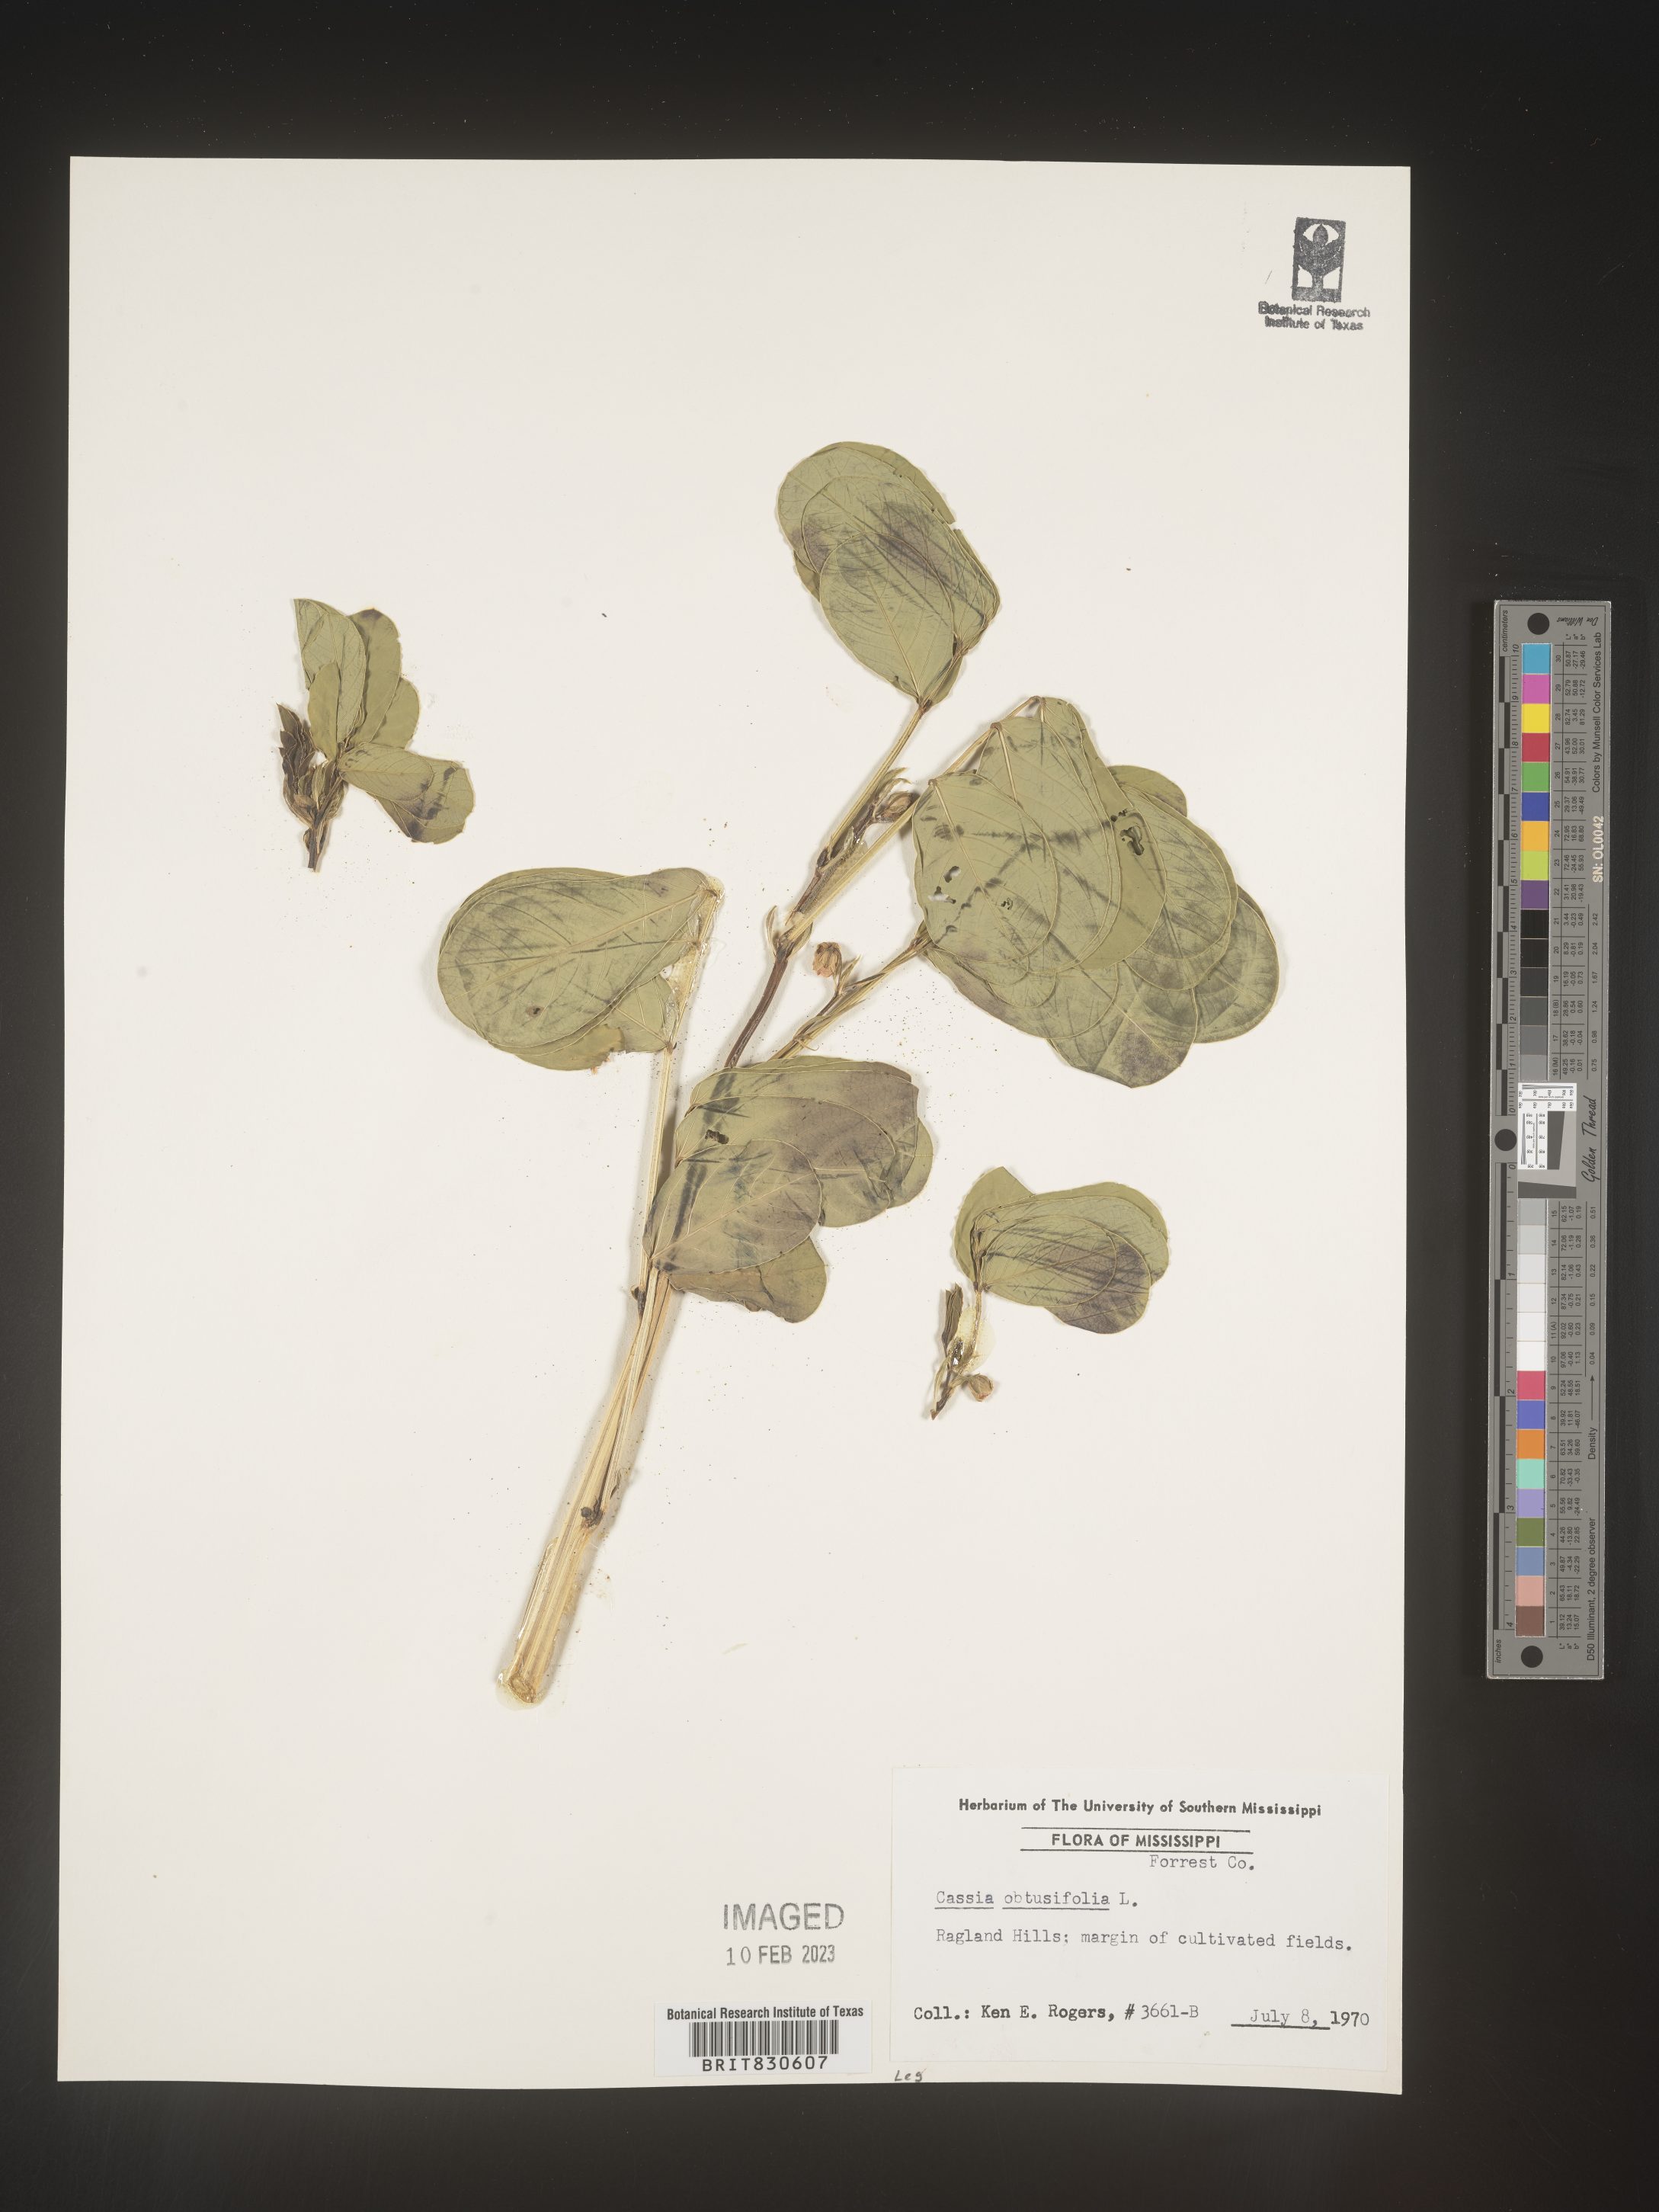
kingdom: Plantae
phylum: Tracheophyta
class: Magnoliopsida
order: Fabales
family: Fabaceae
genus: Senna
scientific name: Senna obtusifolia
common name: Java-bean
